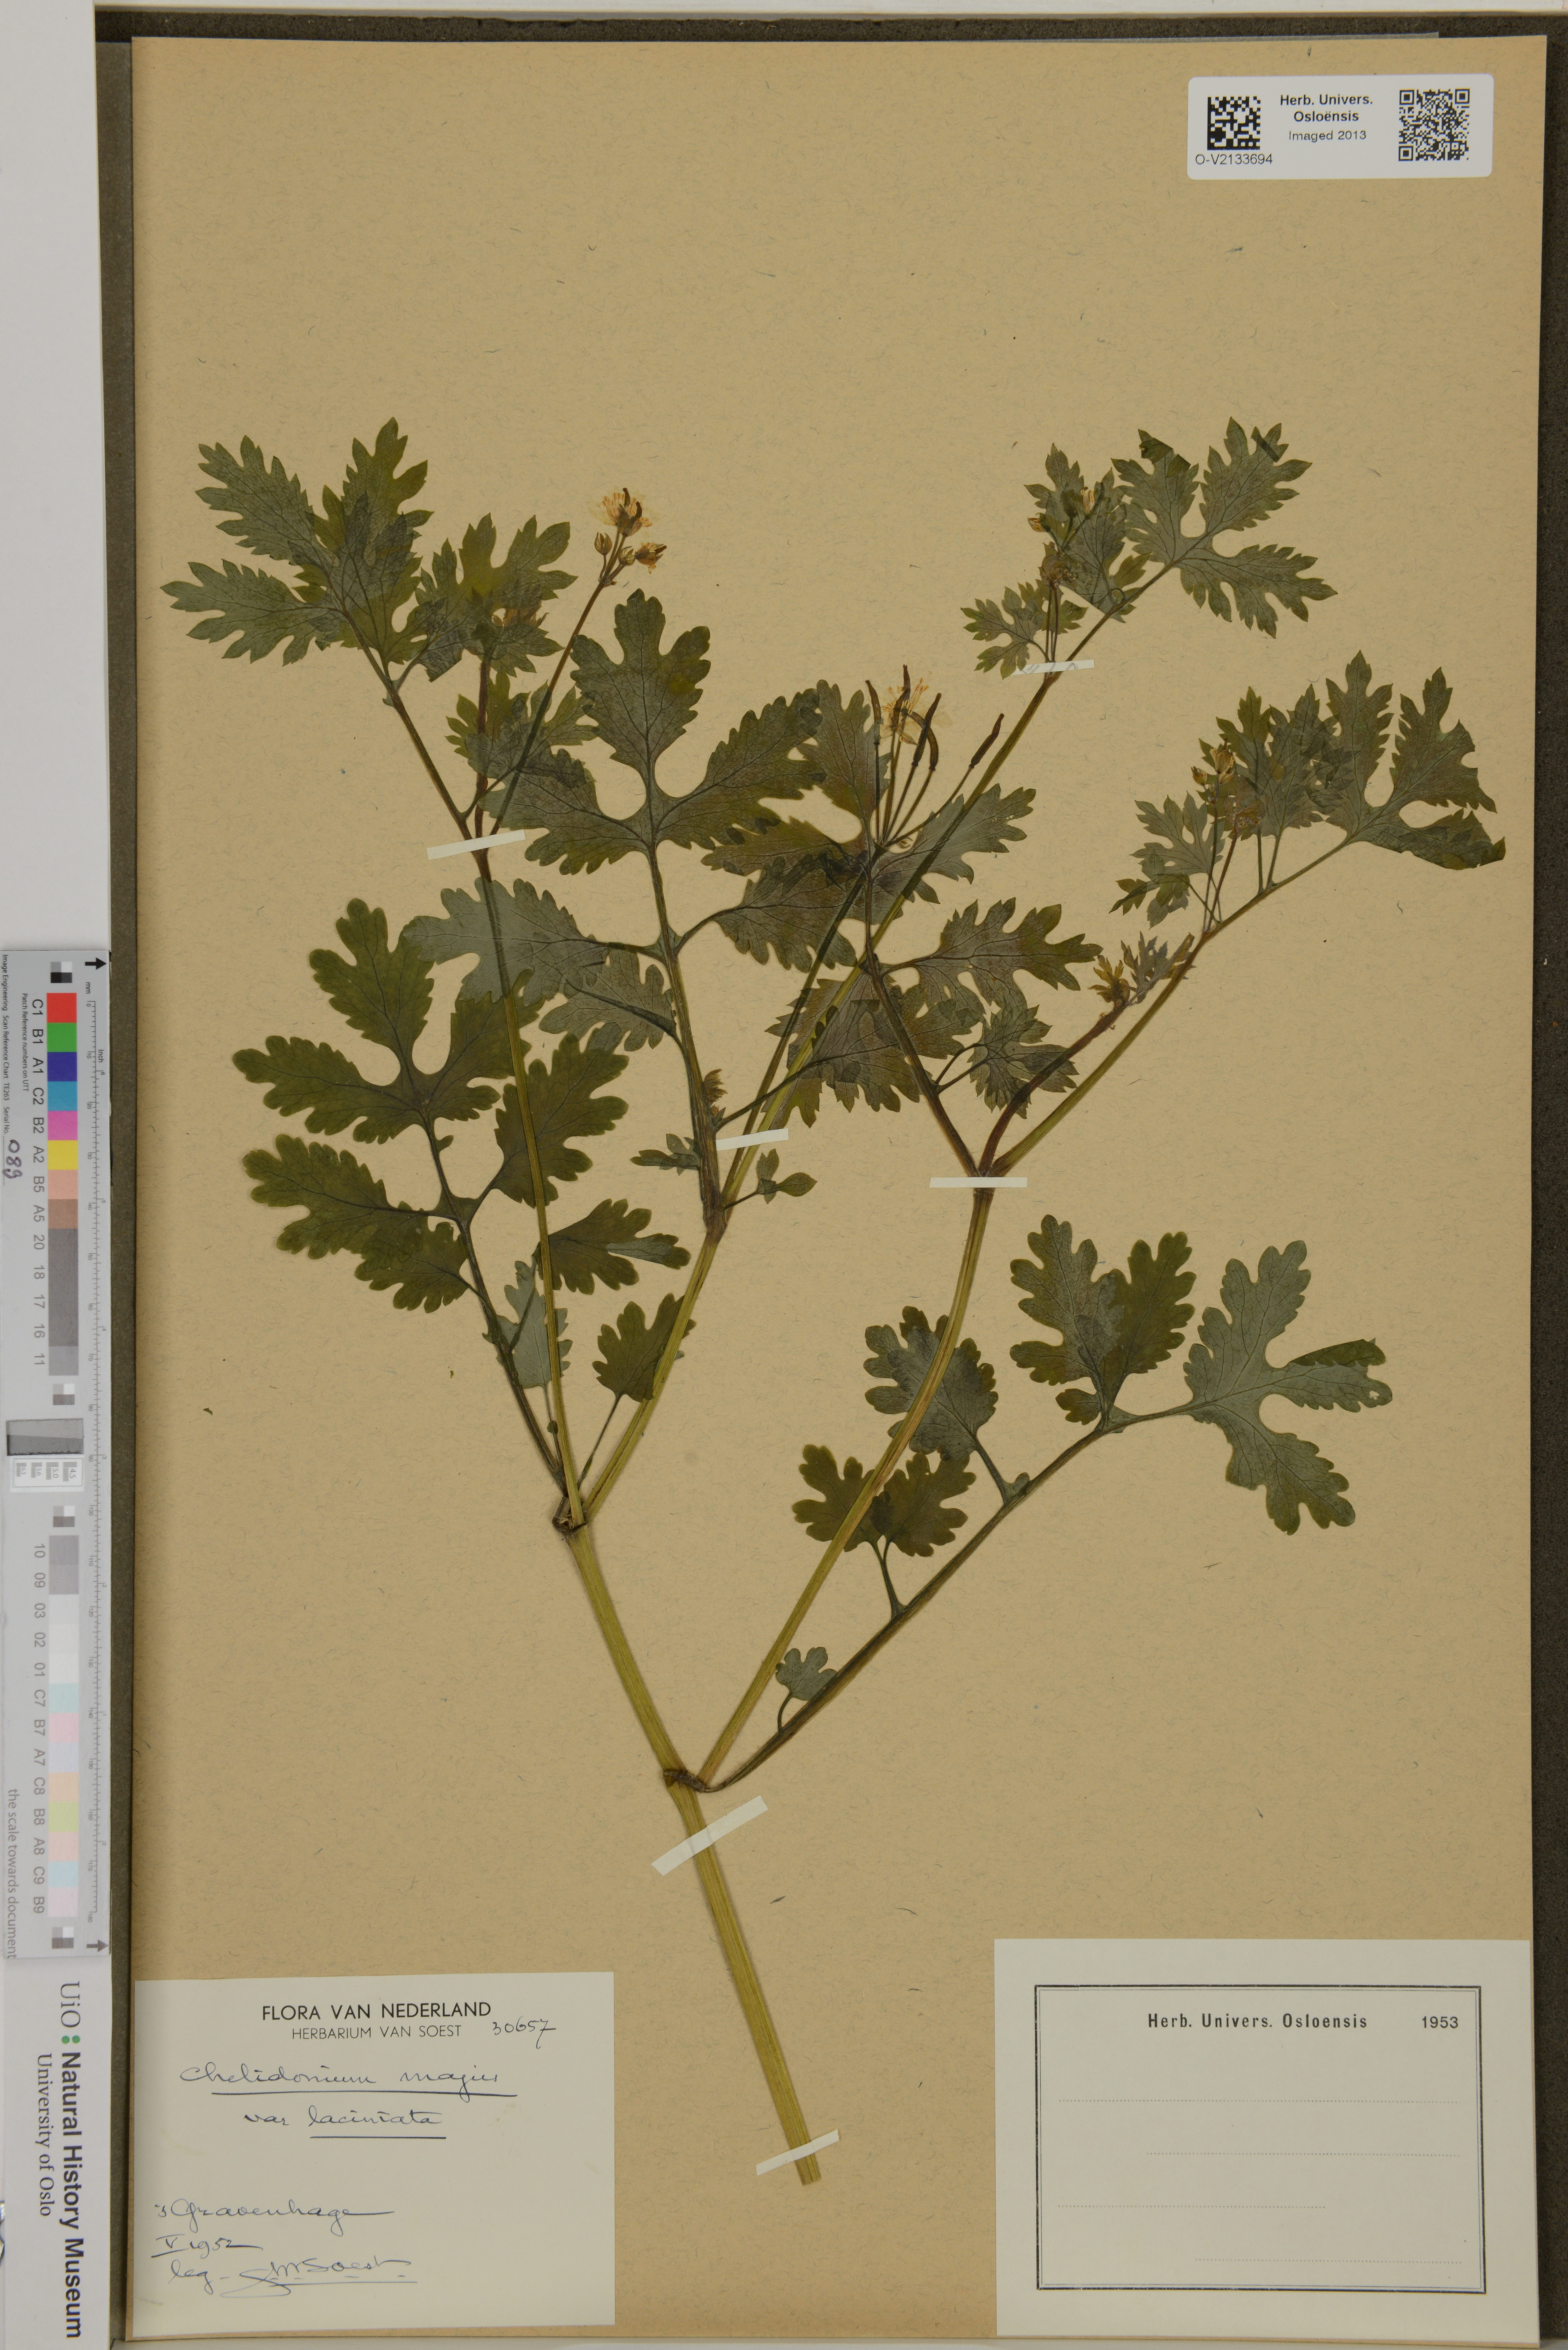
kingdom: Plantae
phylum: Tracheophyta
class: Magnoliopsida
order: Ranunculales
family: Papaveraceae
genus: Chelidonium
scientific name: Chelidonium majus
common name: Greater celandine
